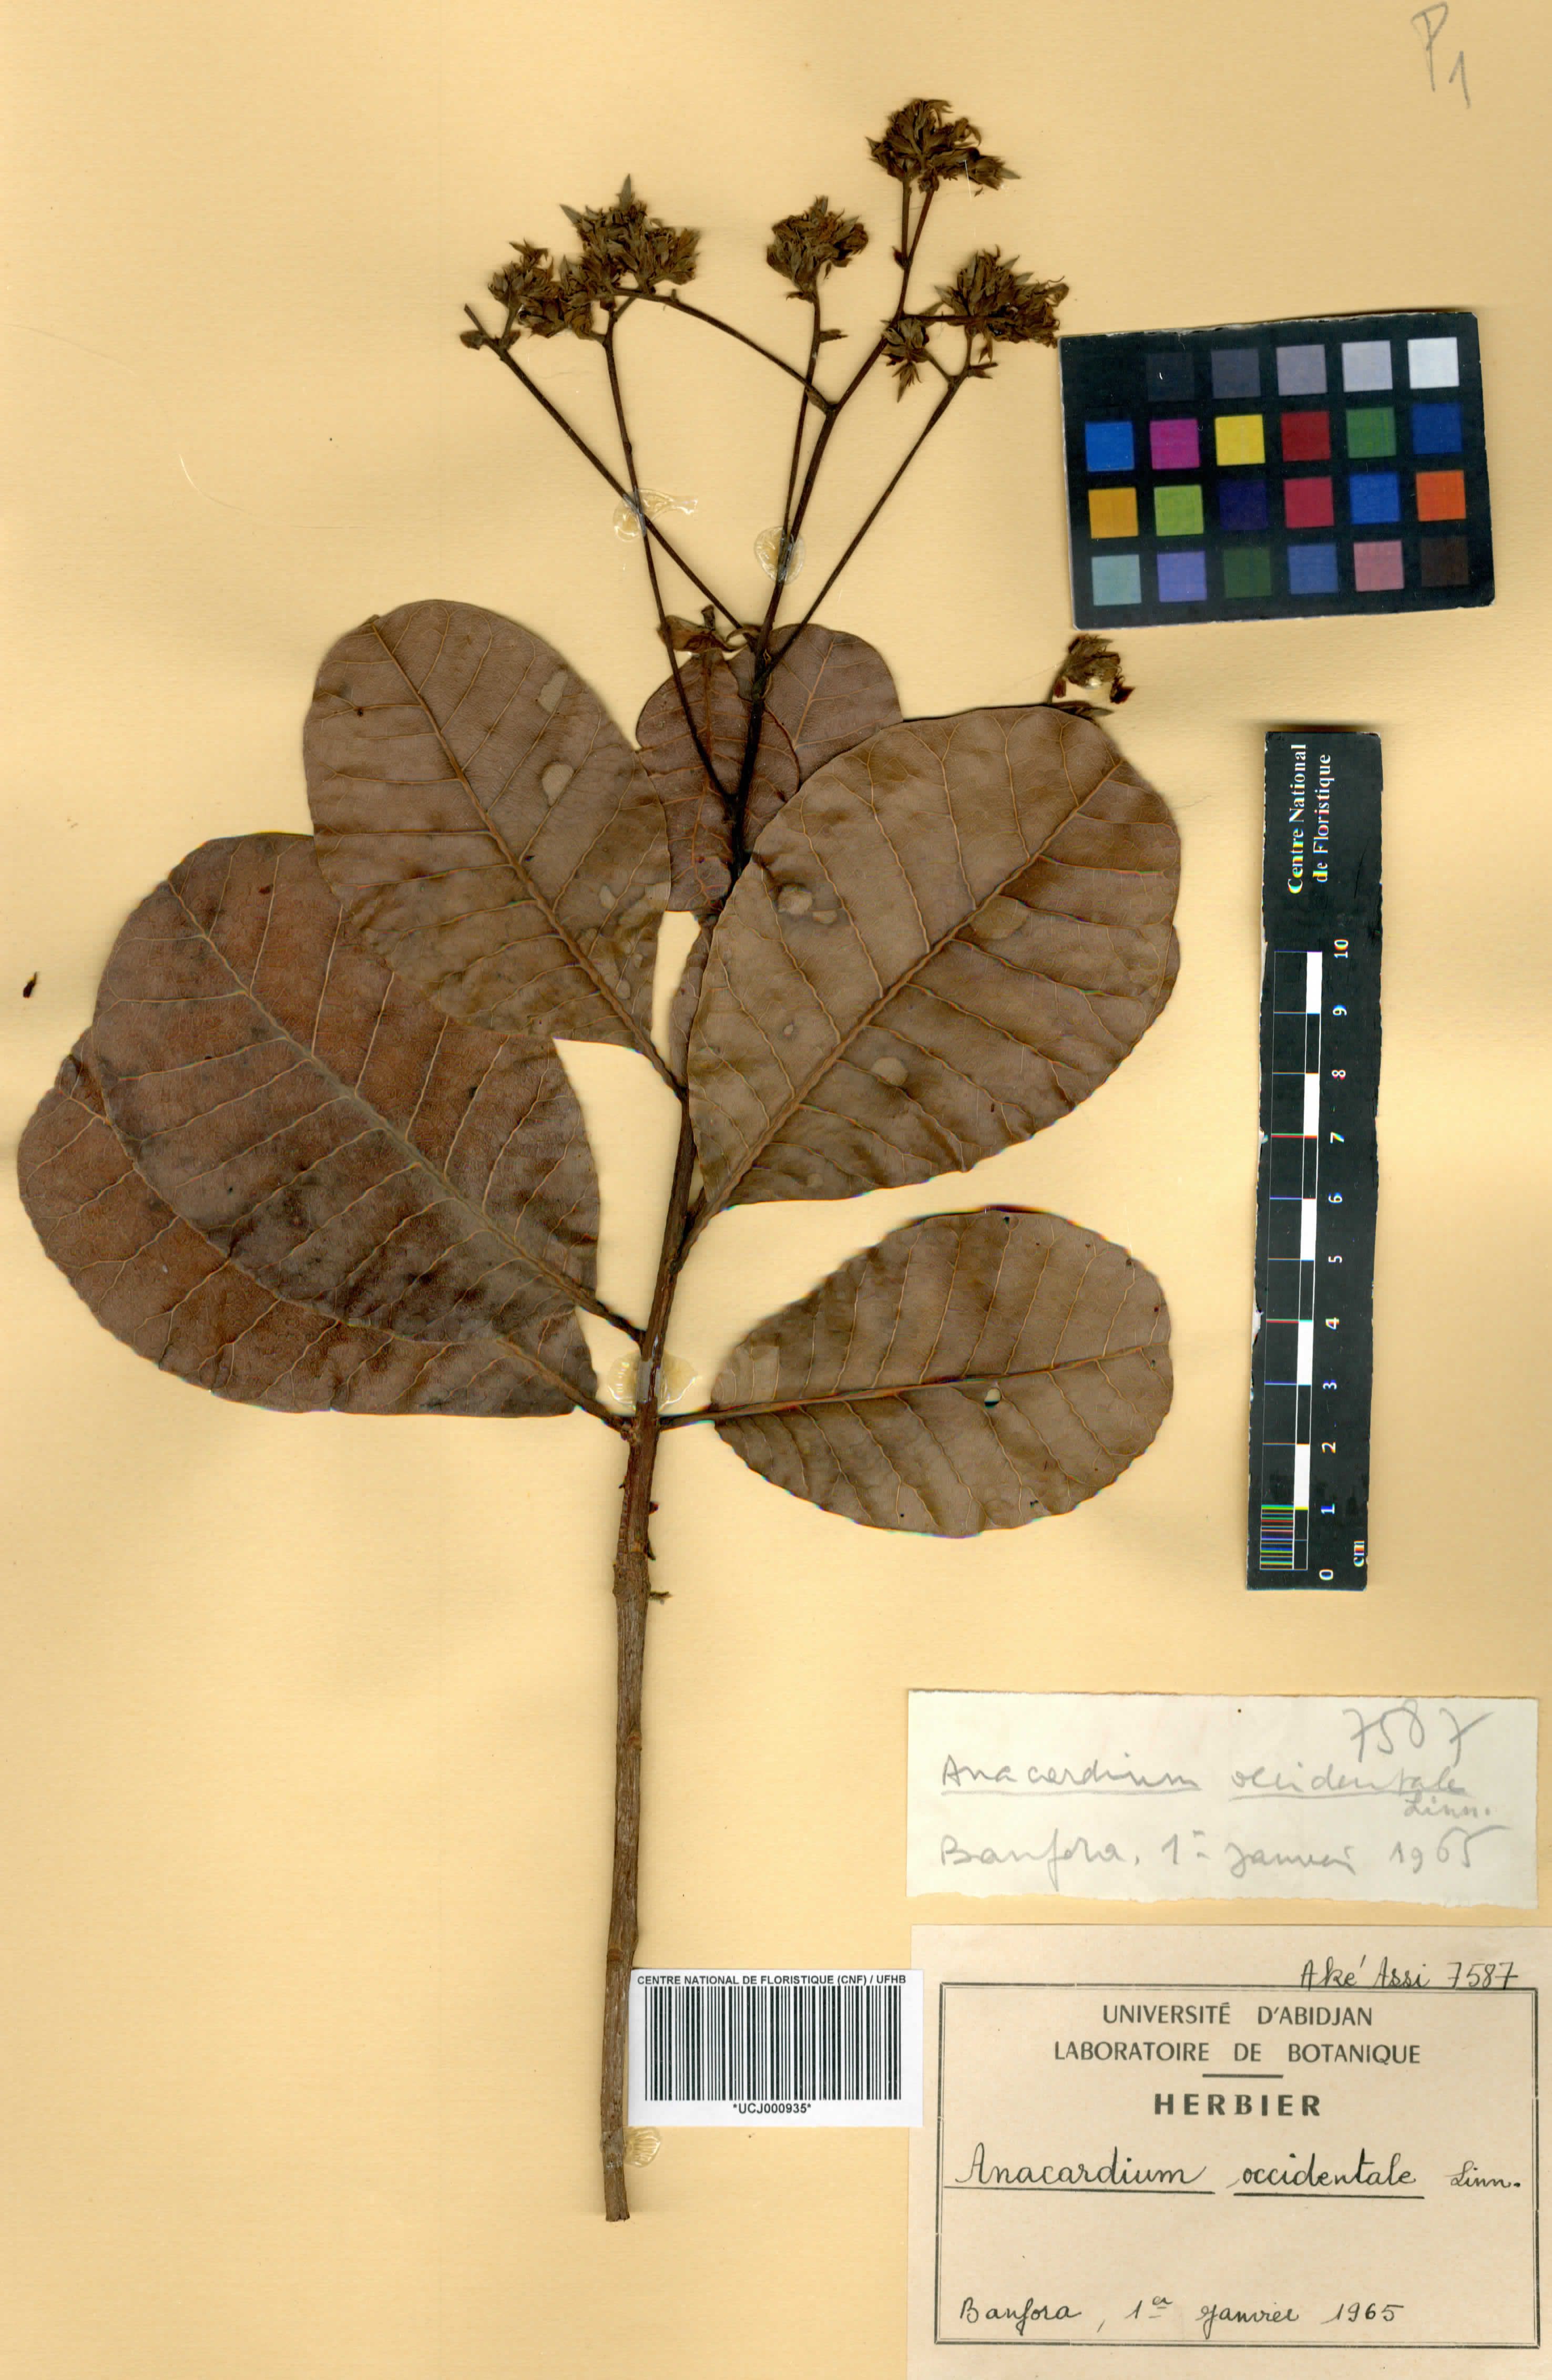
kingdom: Plantae
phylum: Tracheophyta
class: Magnoliopsida
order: Sapindales
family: Anacardiaceae
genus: Anacardium
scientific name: Anacardium occidentale
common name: Cashew
